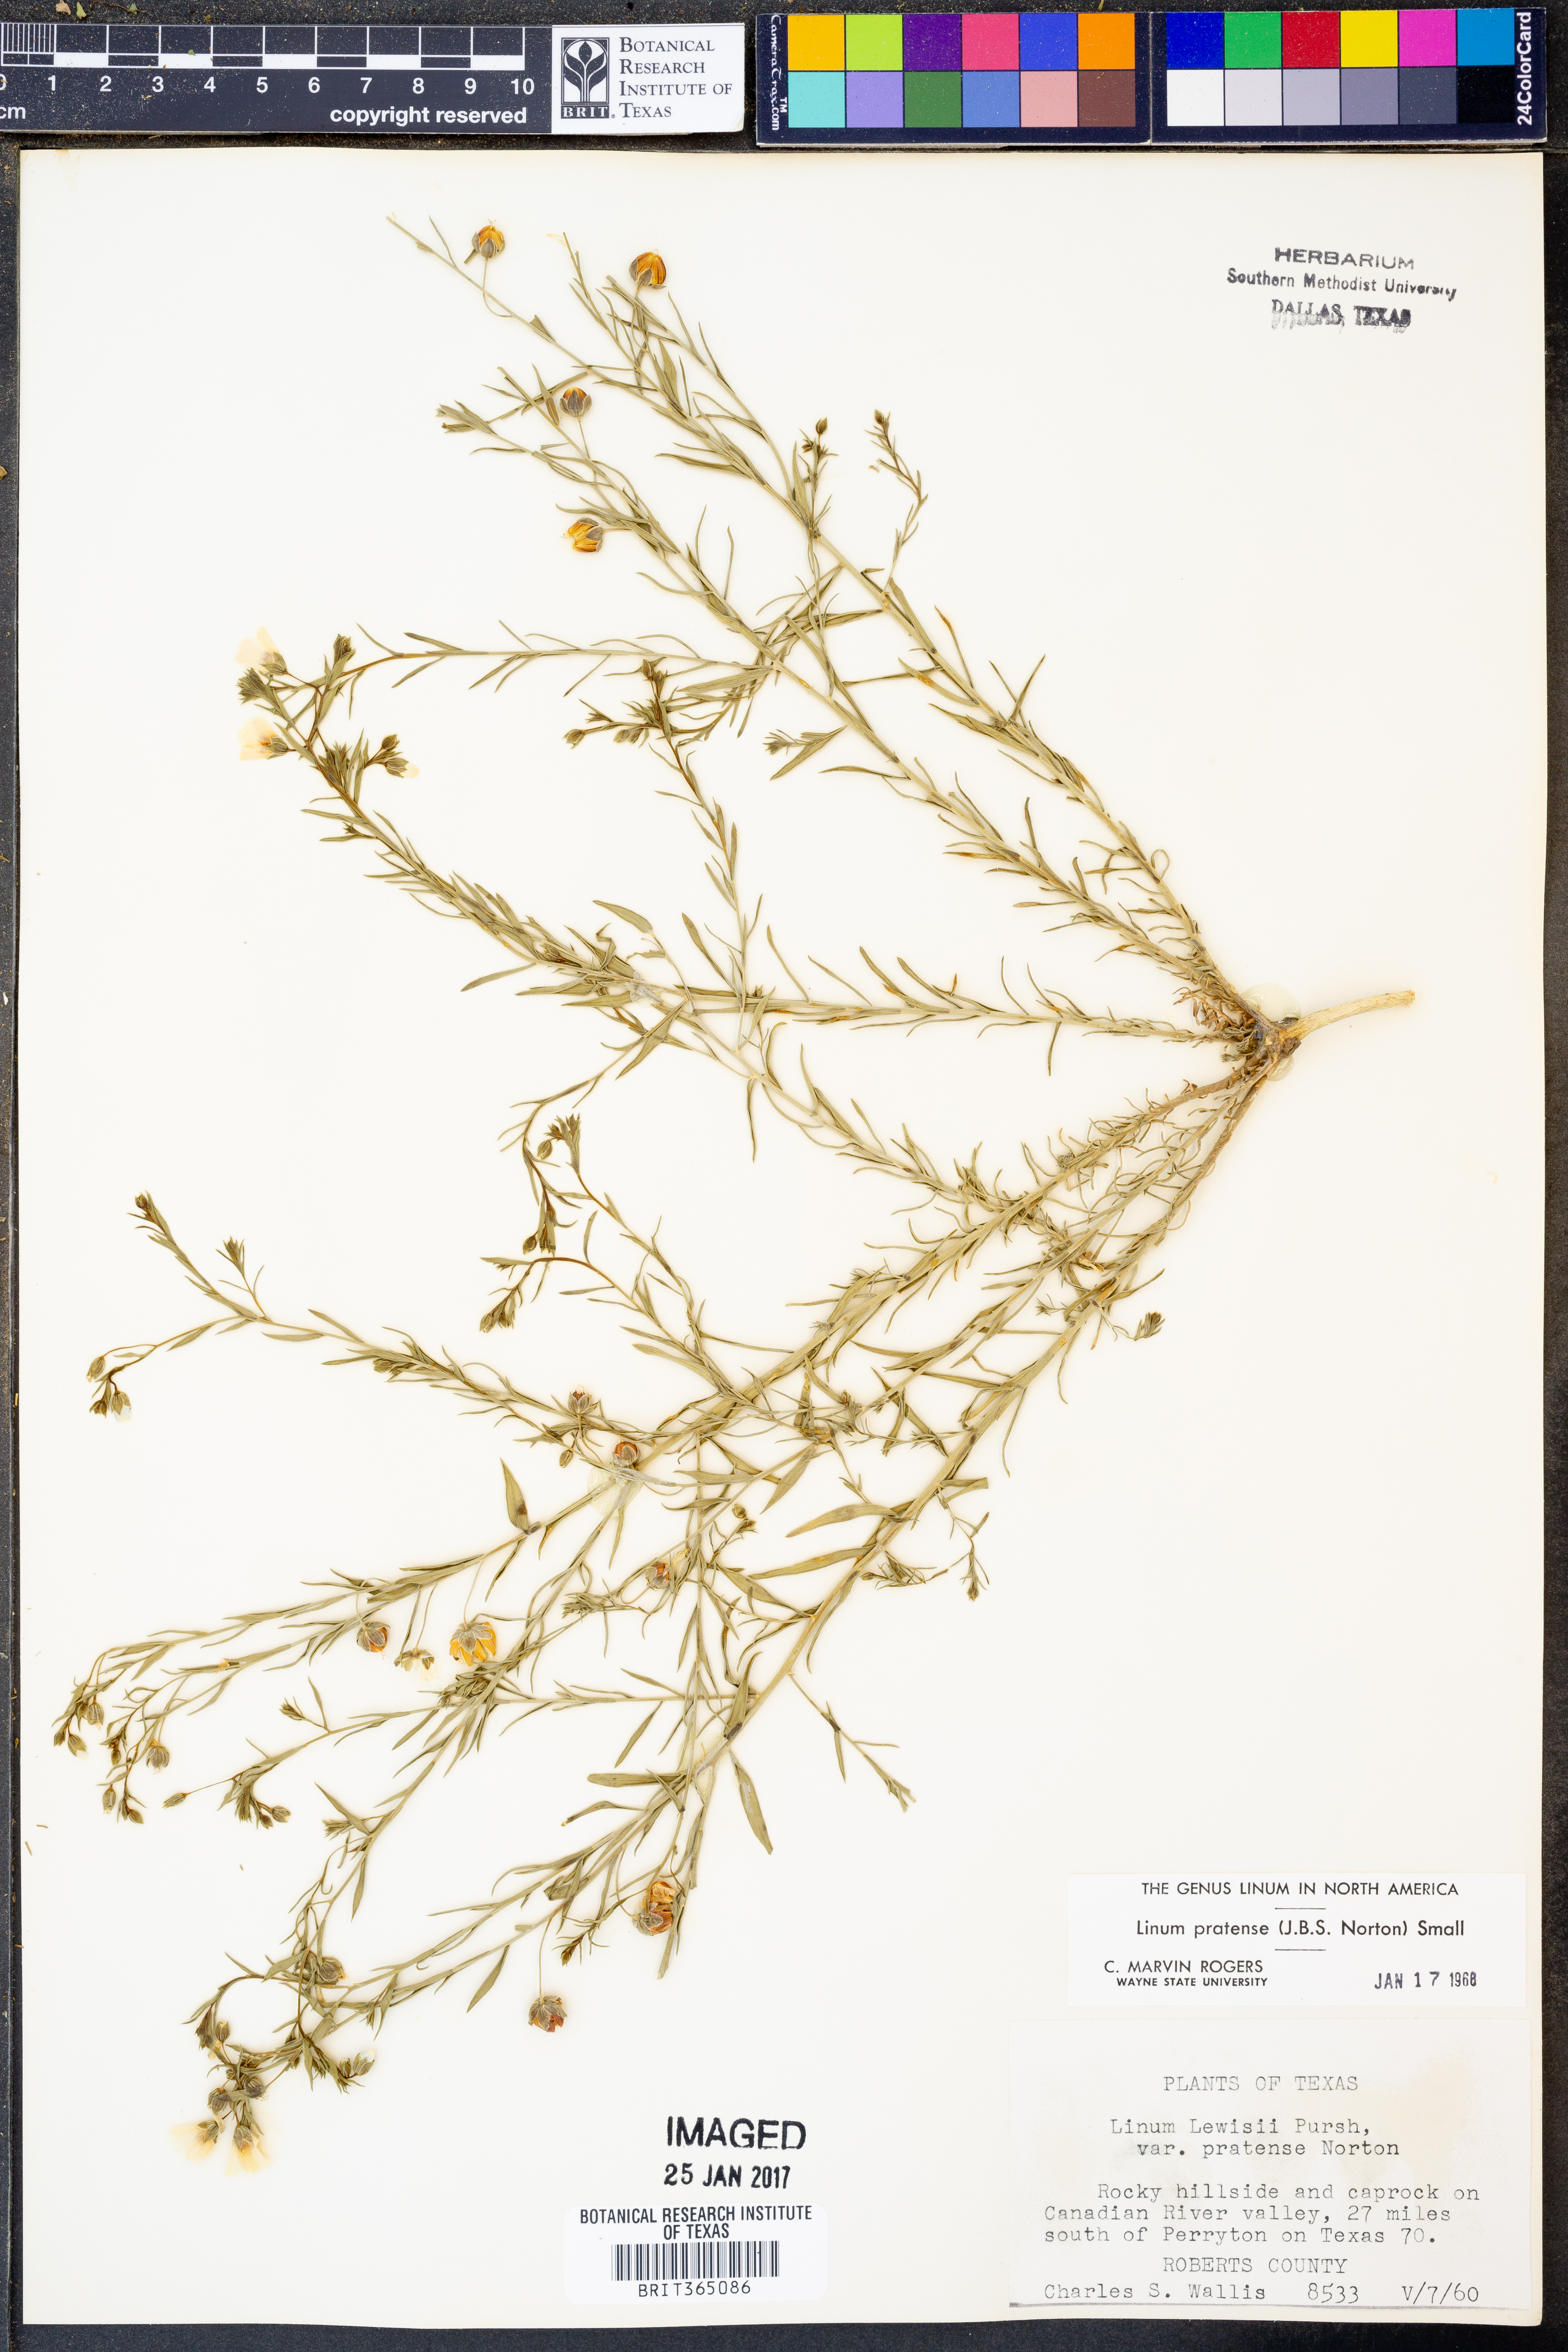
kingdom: Plantae
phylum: Tracheophyta
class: Magnoliopsida
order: Malpighiales
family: Linaceae
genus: Linum
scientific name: Linum pratense
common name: Norton's flax
